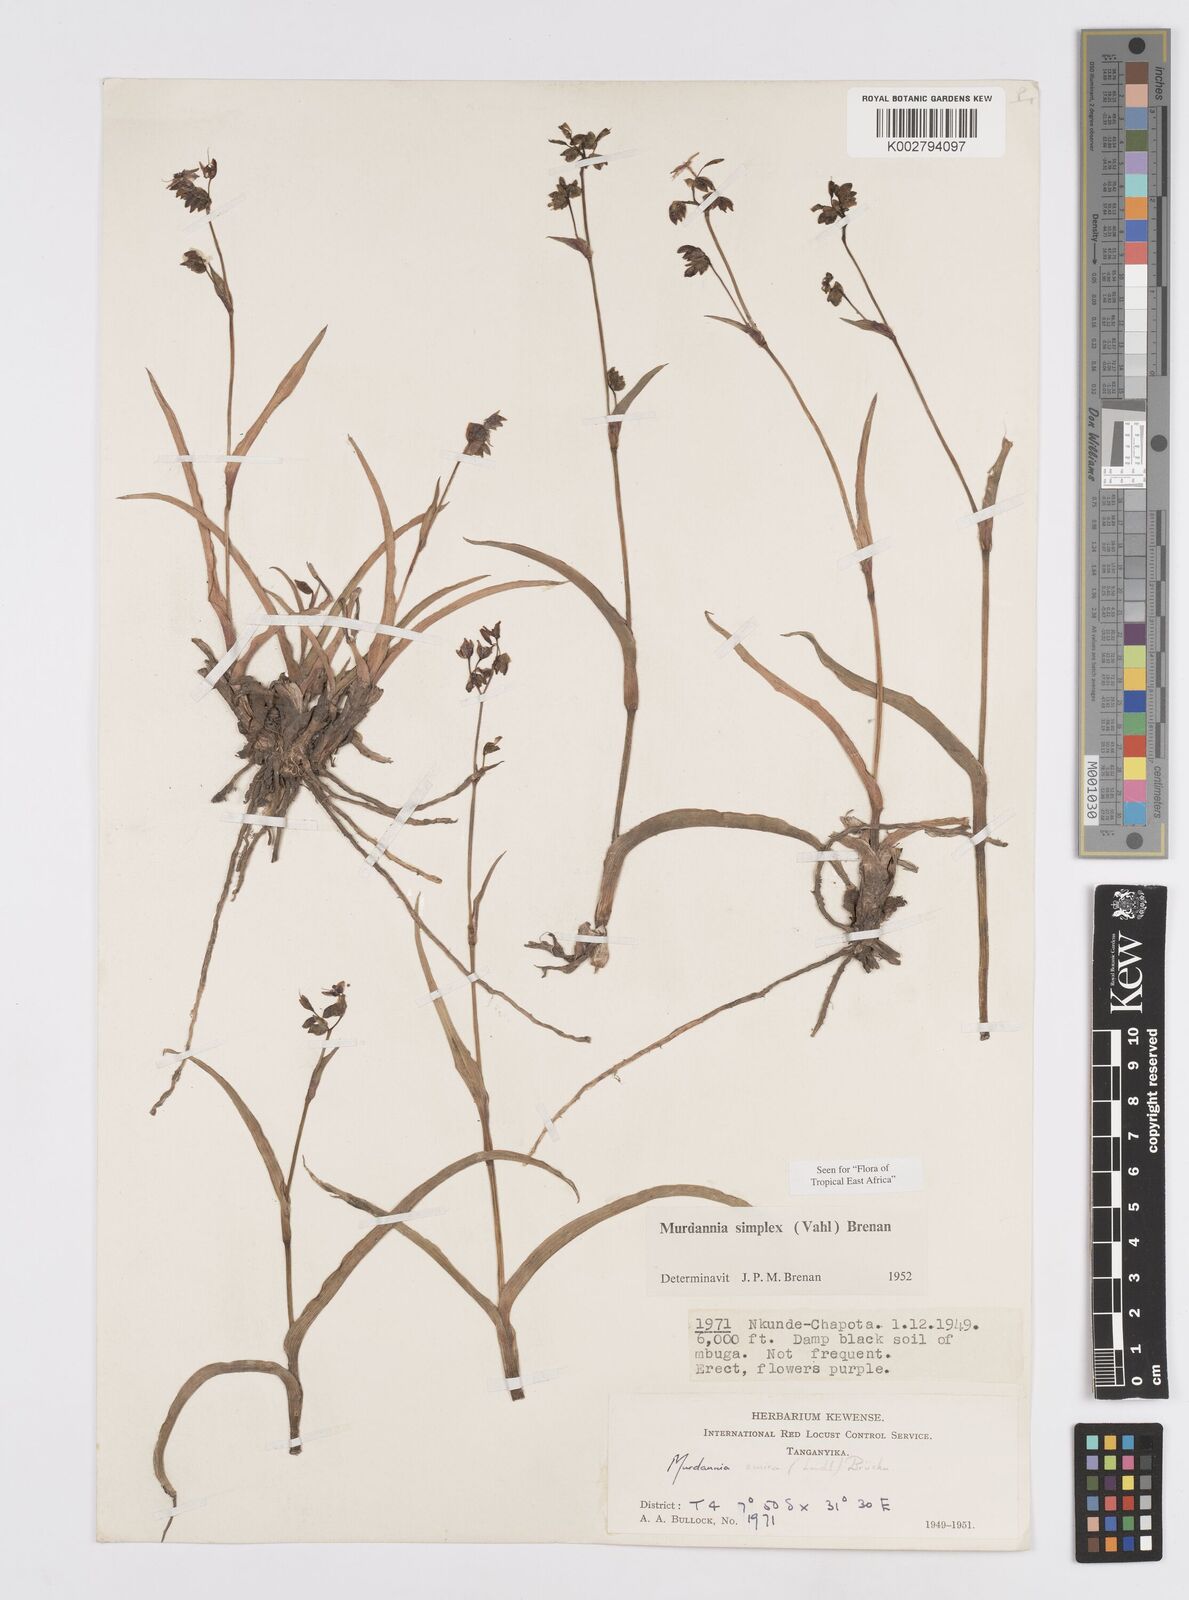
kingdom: Plantae
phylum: Tracheophyta
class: Liliopsida
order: Commelinales
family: Commelinaceae
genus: Murdannia
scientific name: Murdannia simplex
